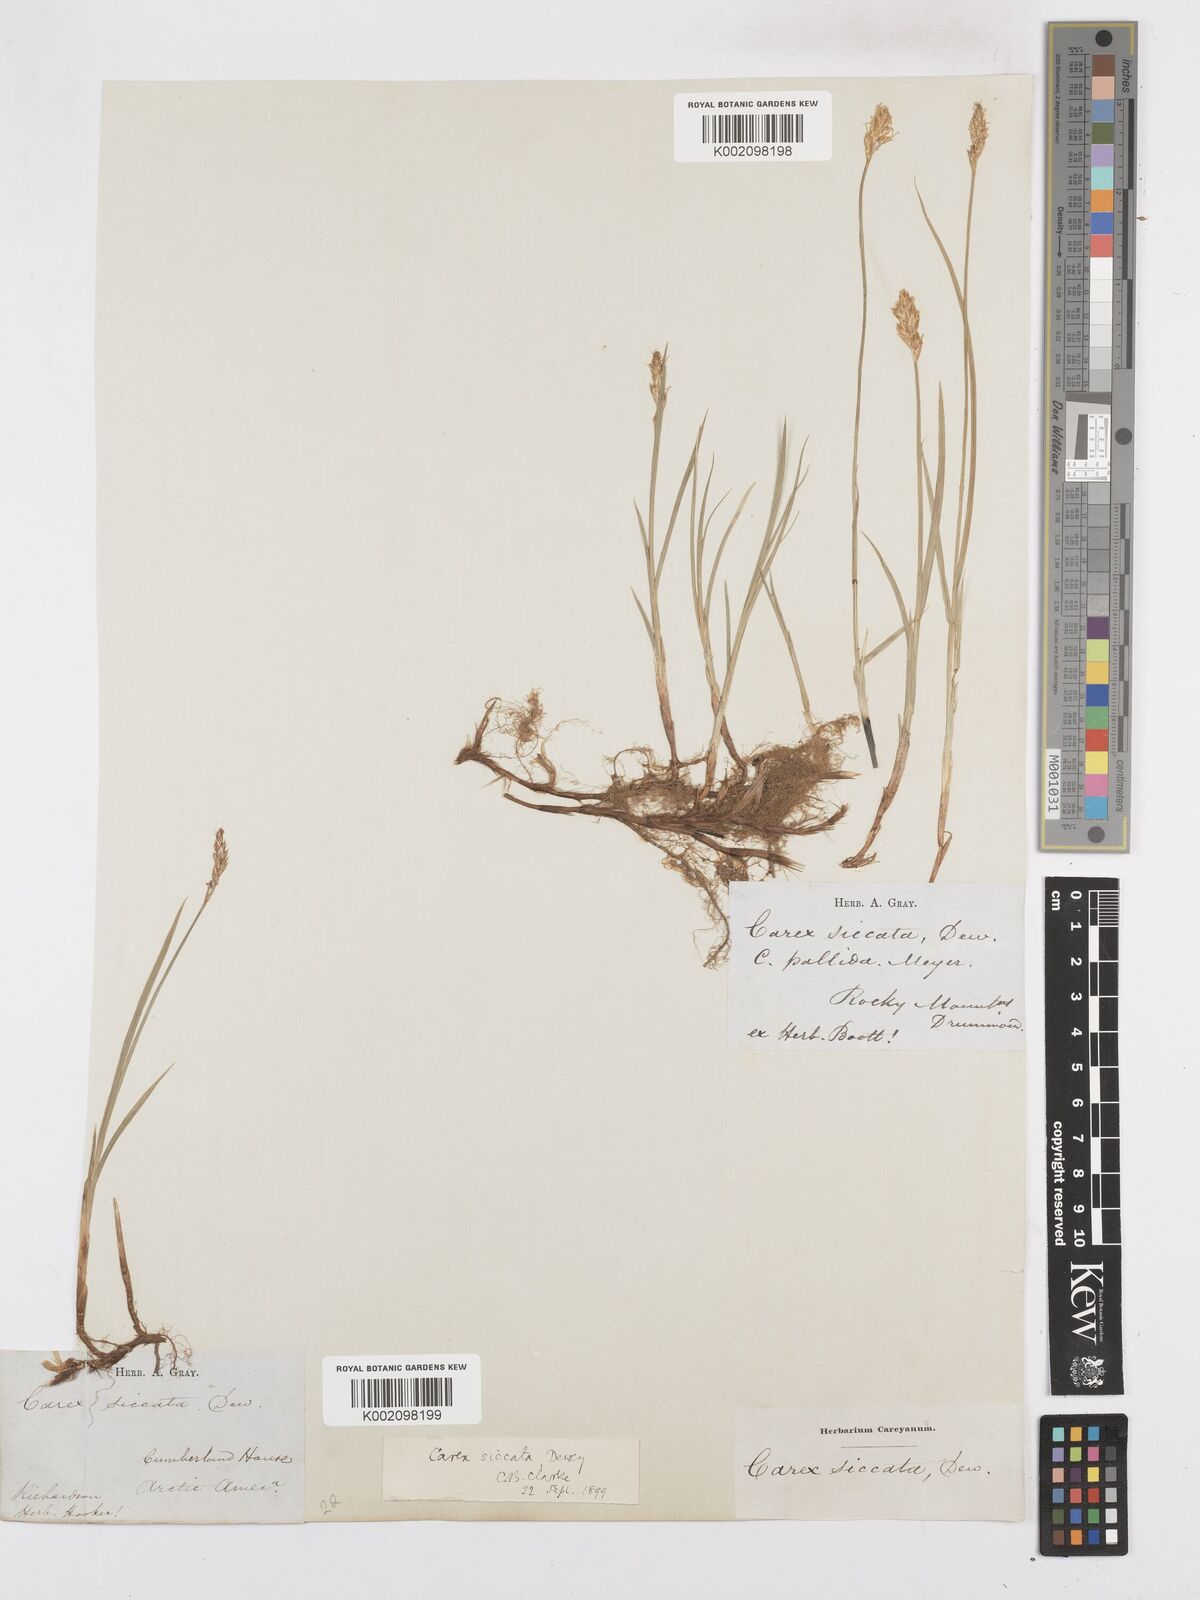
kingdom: Plantae
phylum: Tracheophyta
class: Liliopsida
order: Poales
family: Cyperaceae
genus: Carex
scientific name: Carex foenea
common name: Bronze sedge
